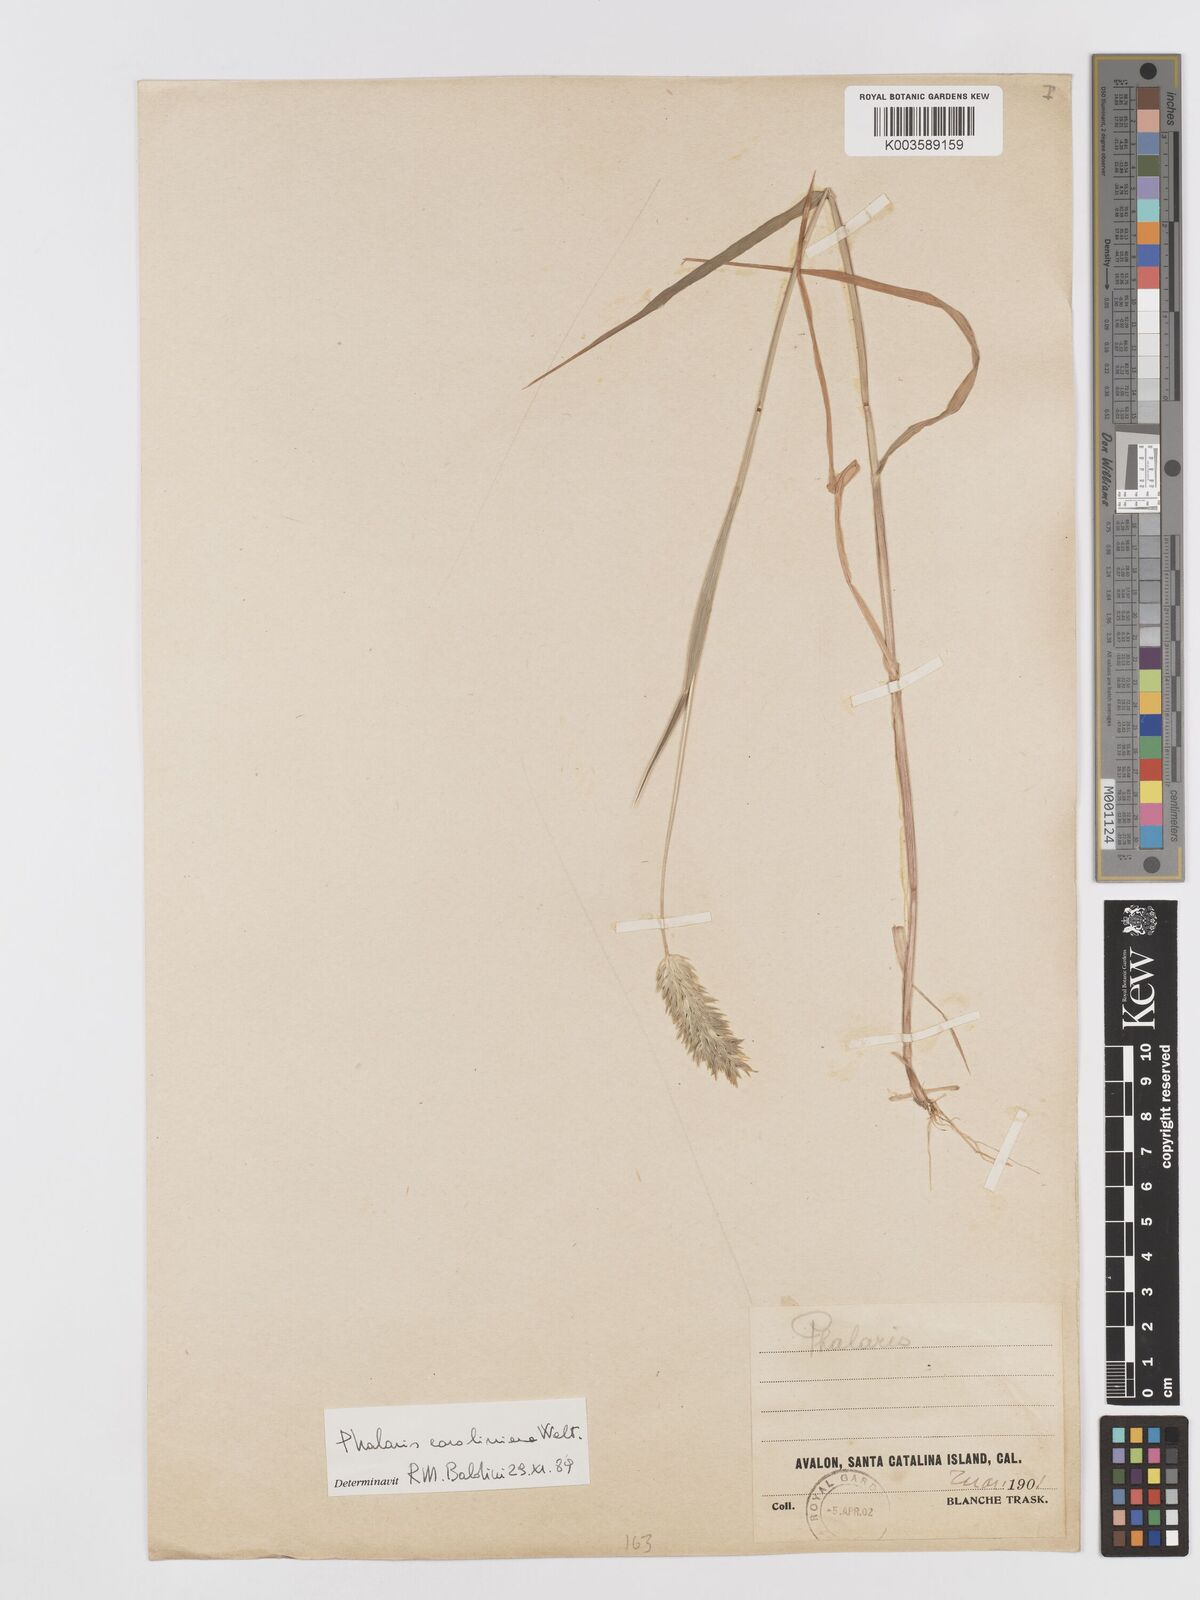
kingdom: Plantae
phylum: Tracheophyta
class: Liliopsida
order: Poales
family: Poaceae
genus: Phalaris
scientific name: Phalaris caroliniana
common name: May grass
